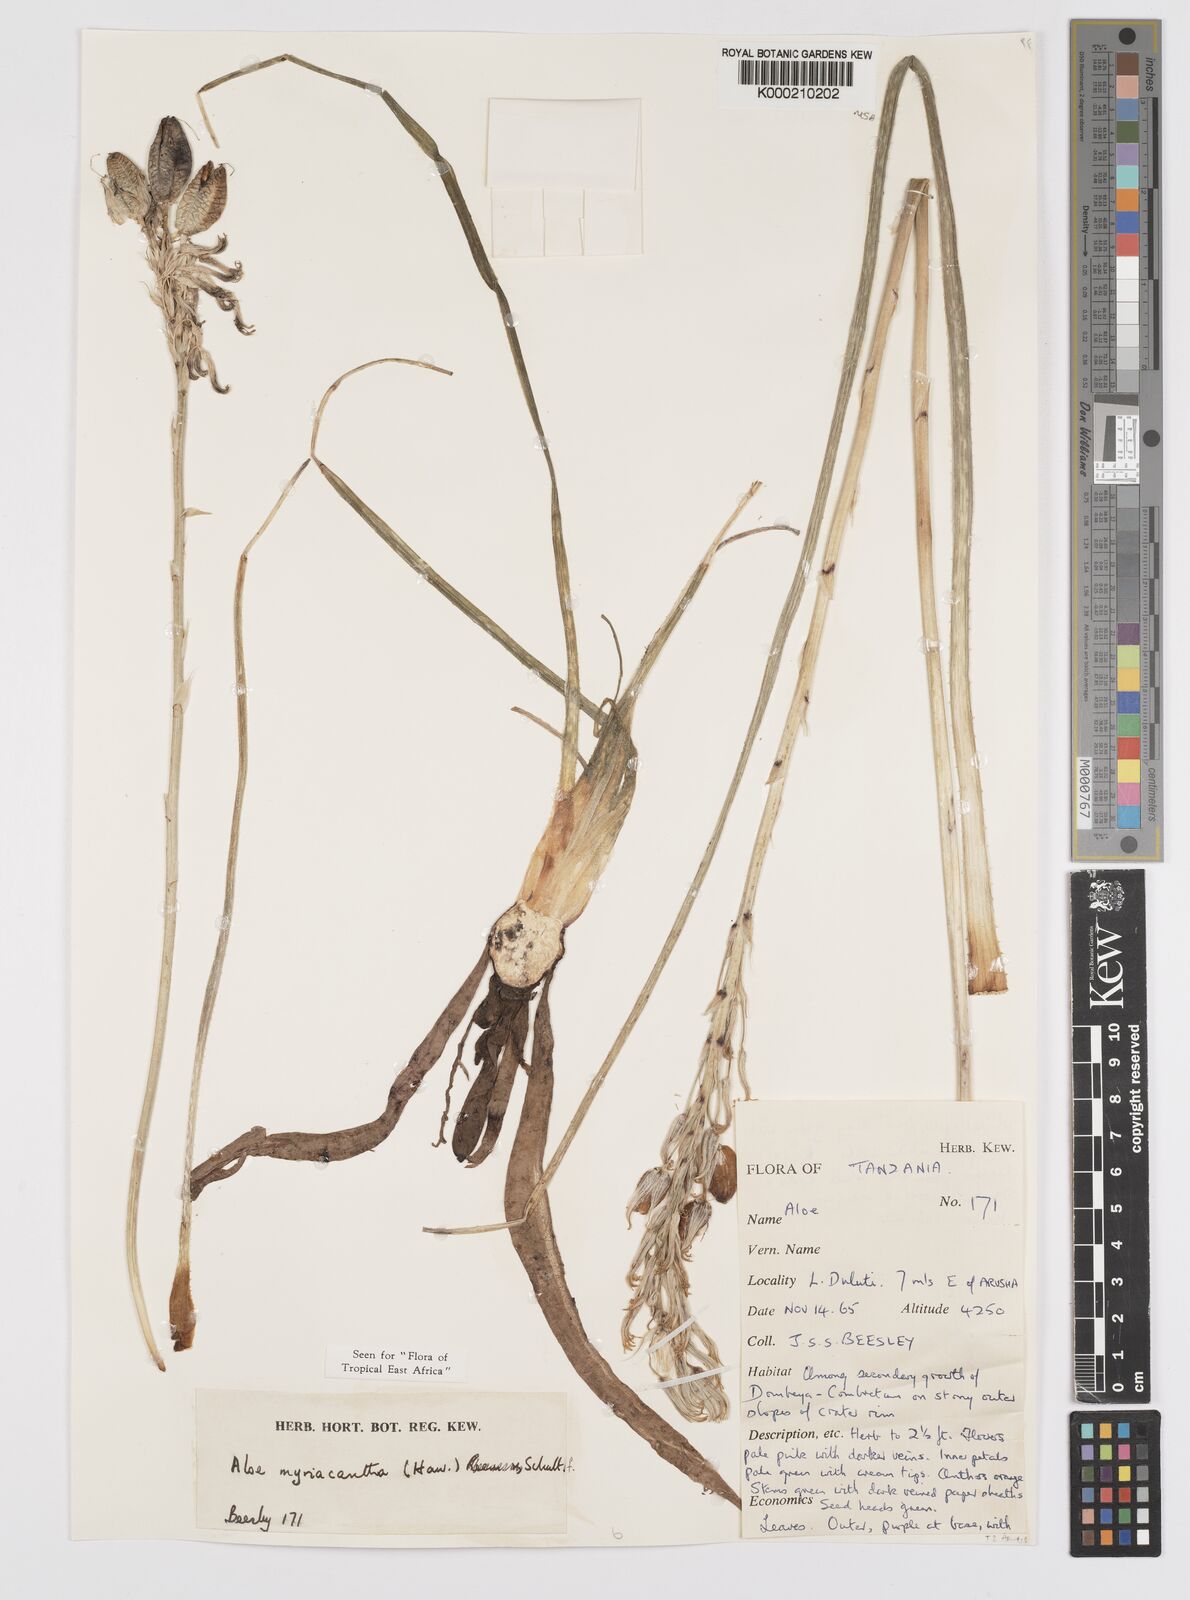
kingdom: Plantae
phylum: Tracheophyta
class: Liliopsida
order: Asparagales
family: Asphodelaceae
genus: Aloe
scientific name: Aloe
